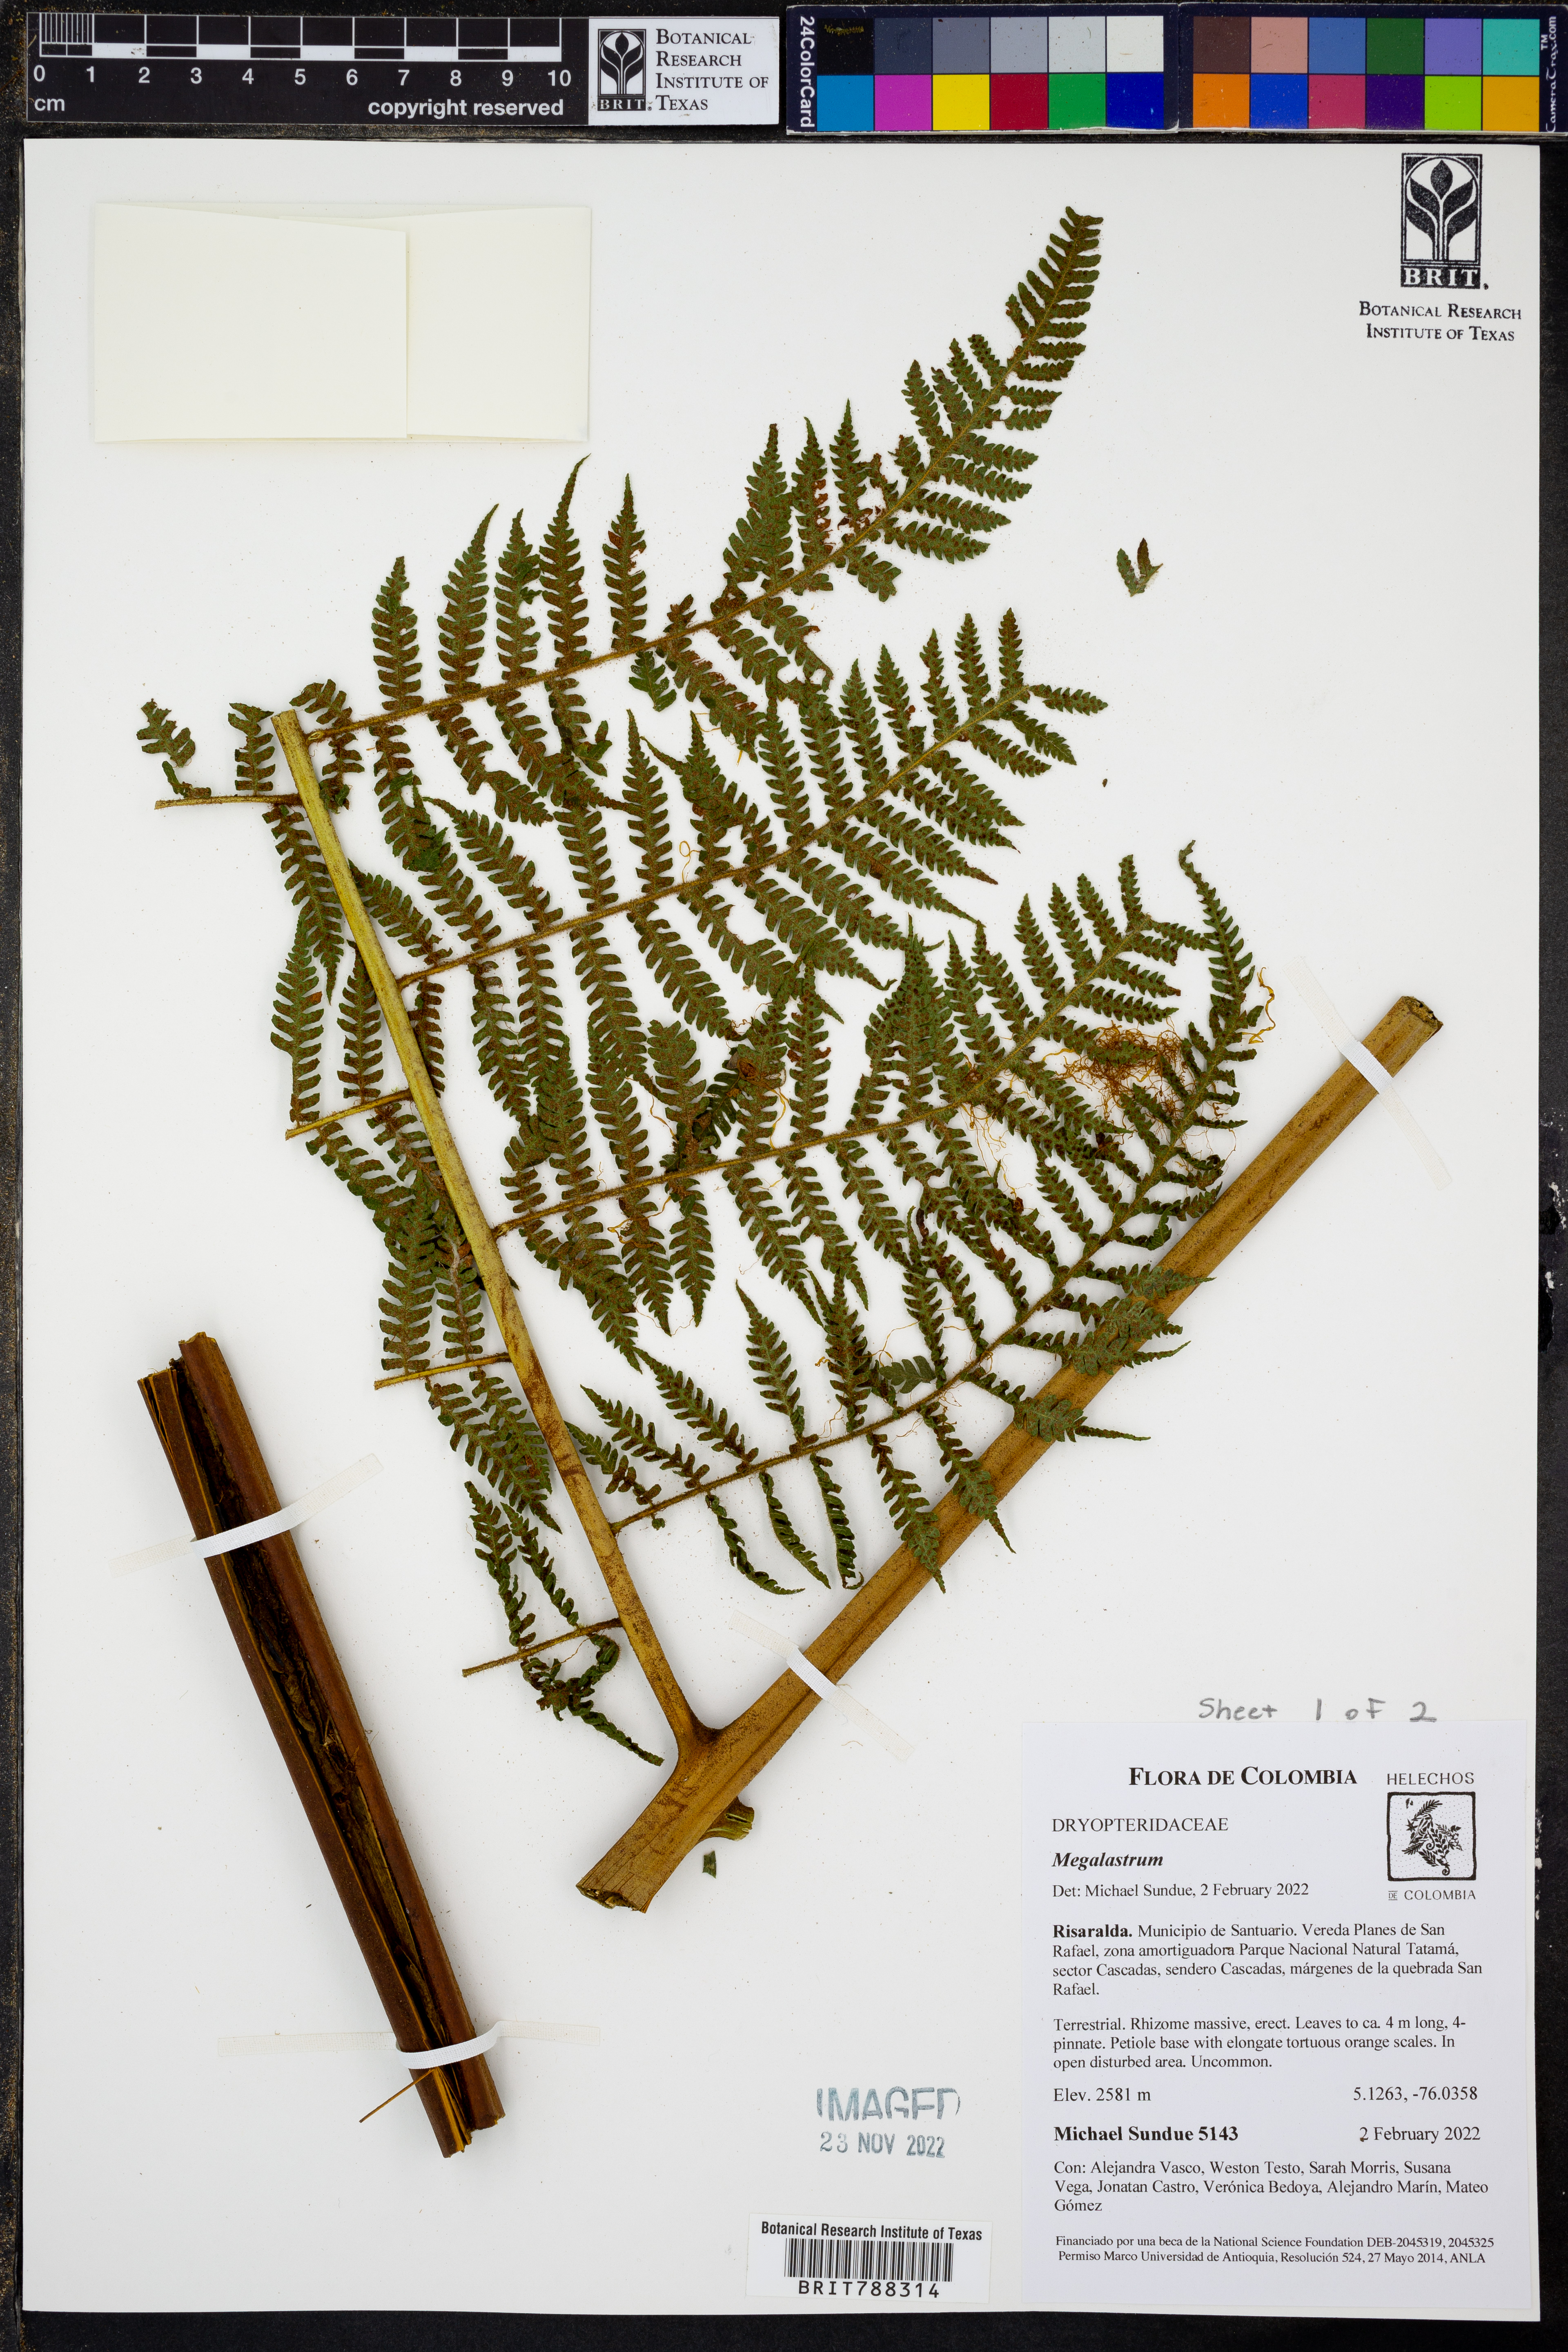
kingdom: Plantae
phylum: Tracheophyta
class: Polypodiopsida
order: Polypodiales
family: Dryopteridaceae
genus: Megalastrum
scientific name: Megalastrum pulverulentum
